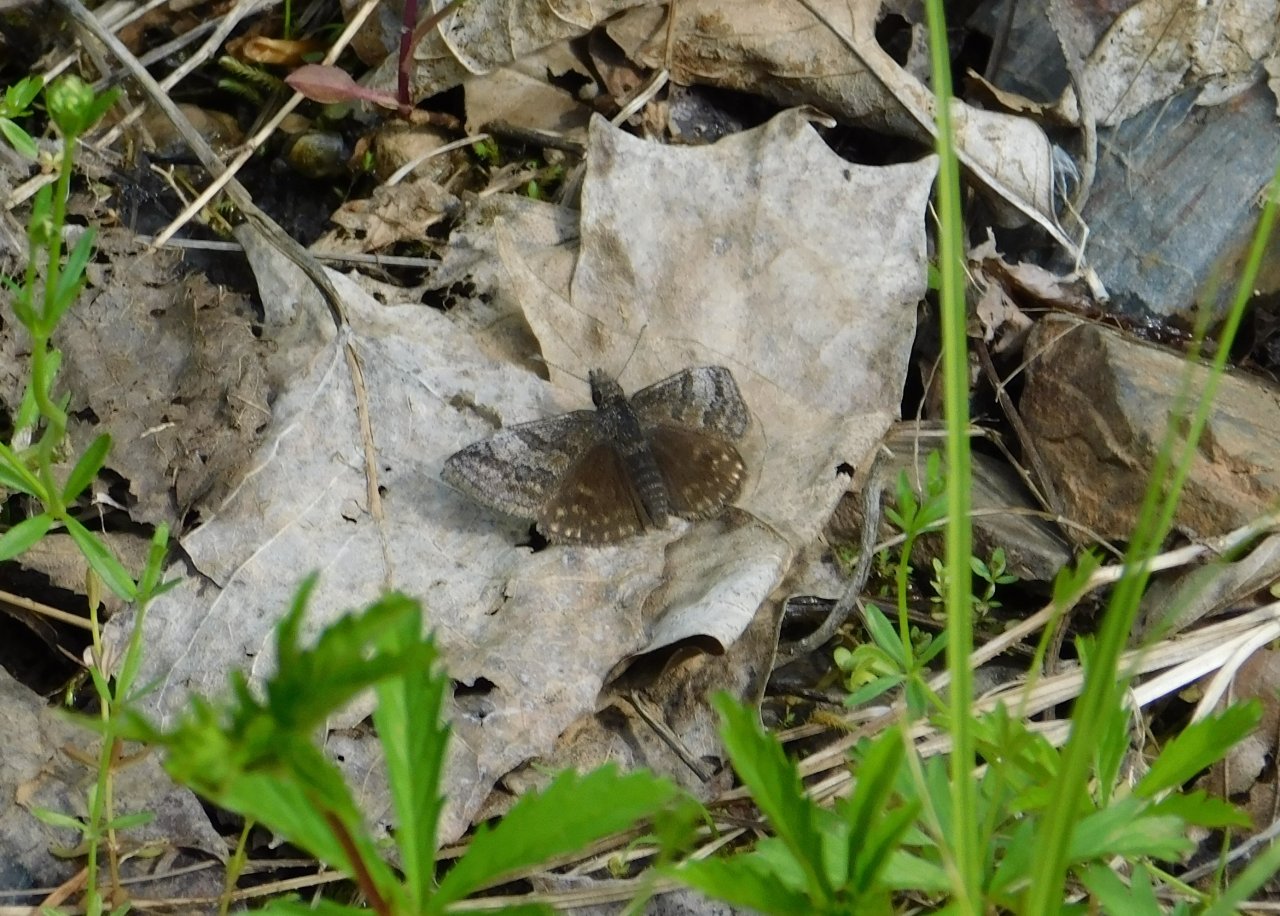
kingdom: Animalia
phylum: Arthropoda
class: Insecta
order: Lepidoptera
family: Hesperiidae
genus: Erynnis
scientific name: Erynnis icelus
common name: Dreamy Duskywing
